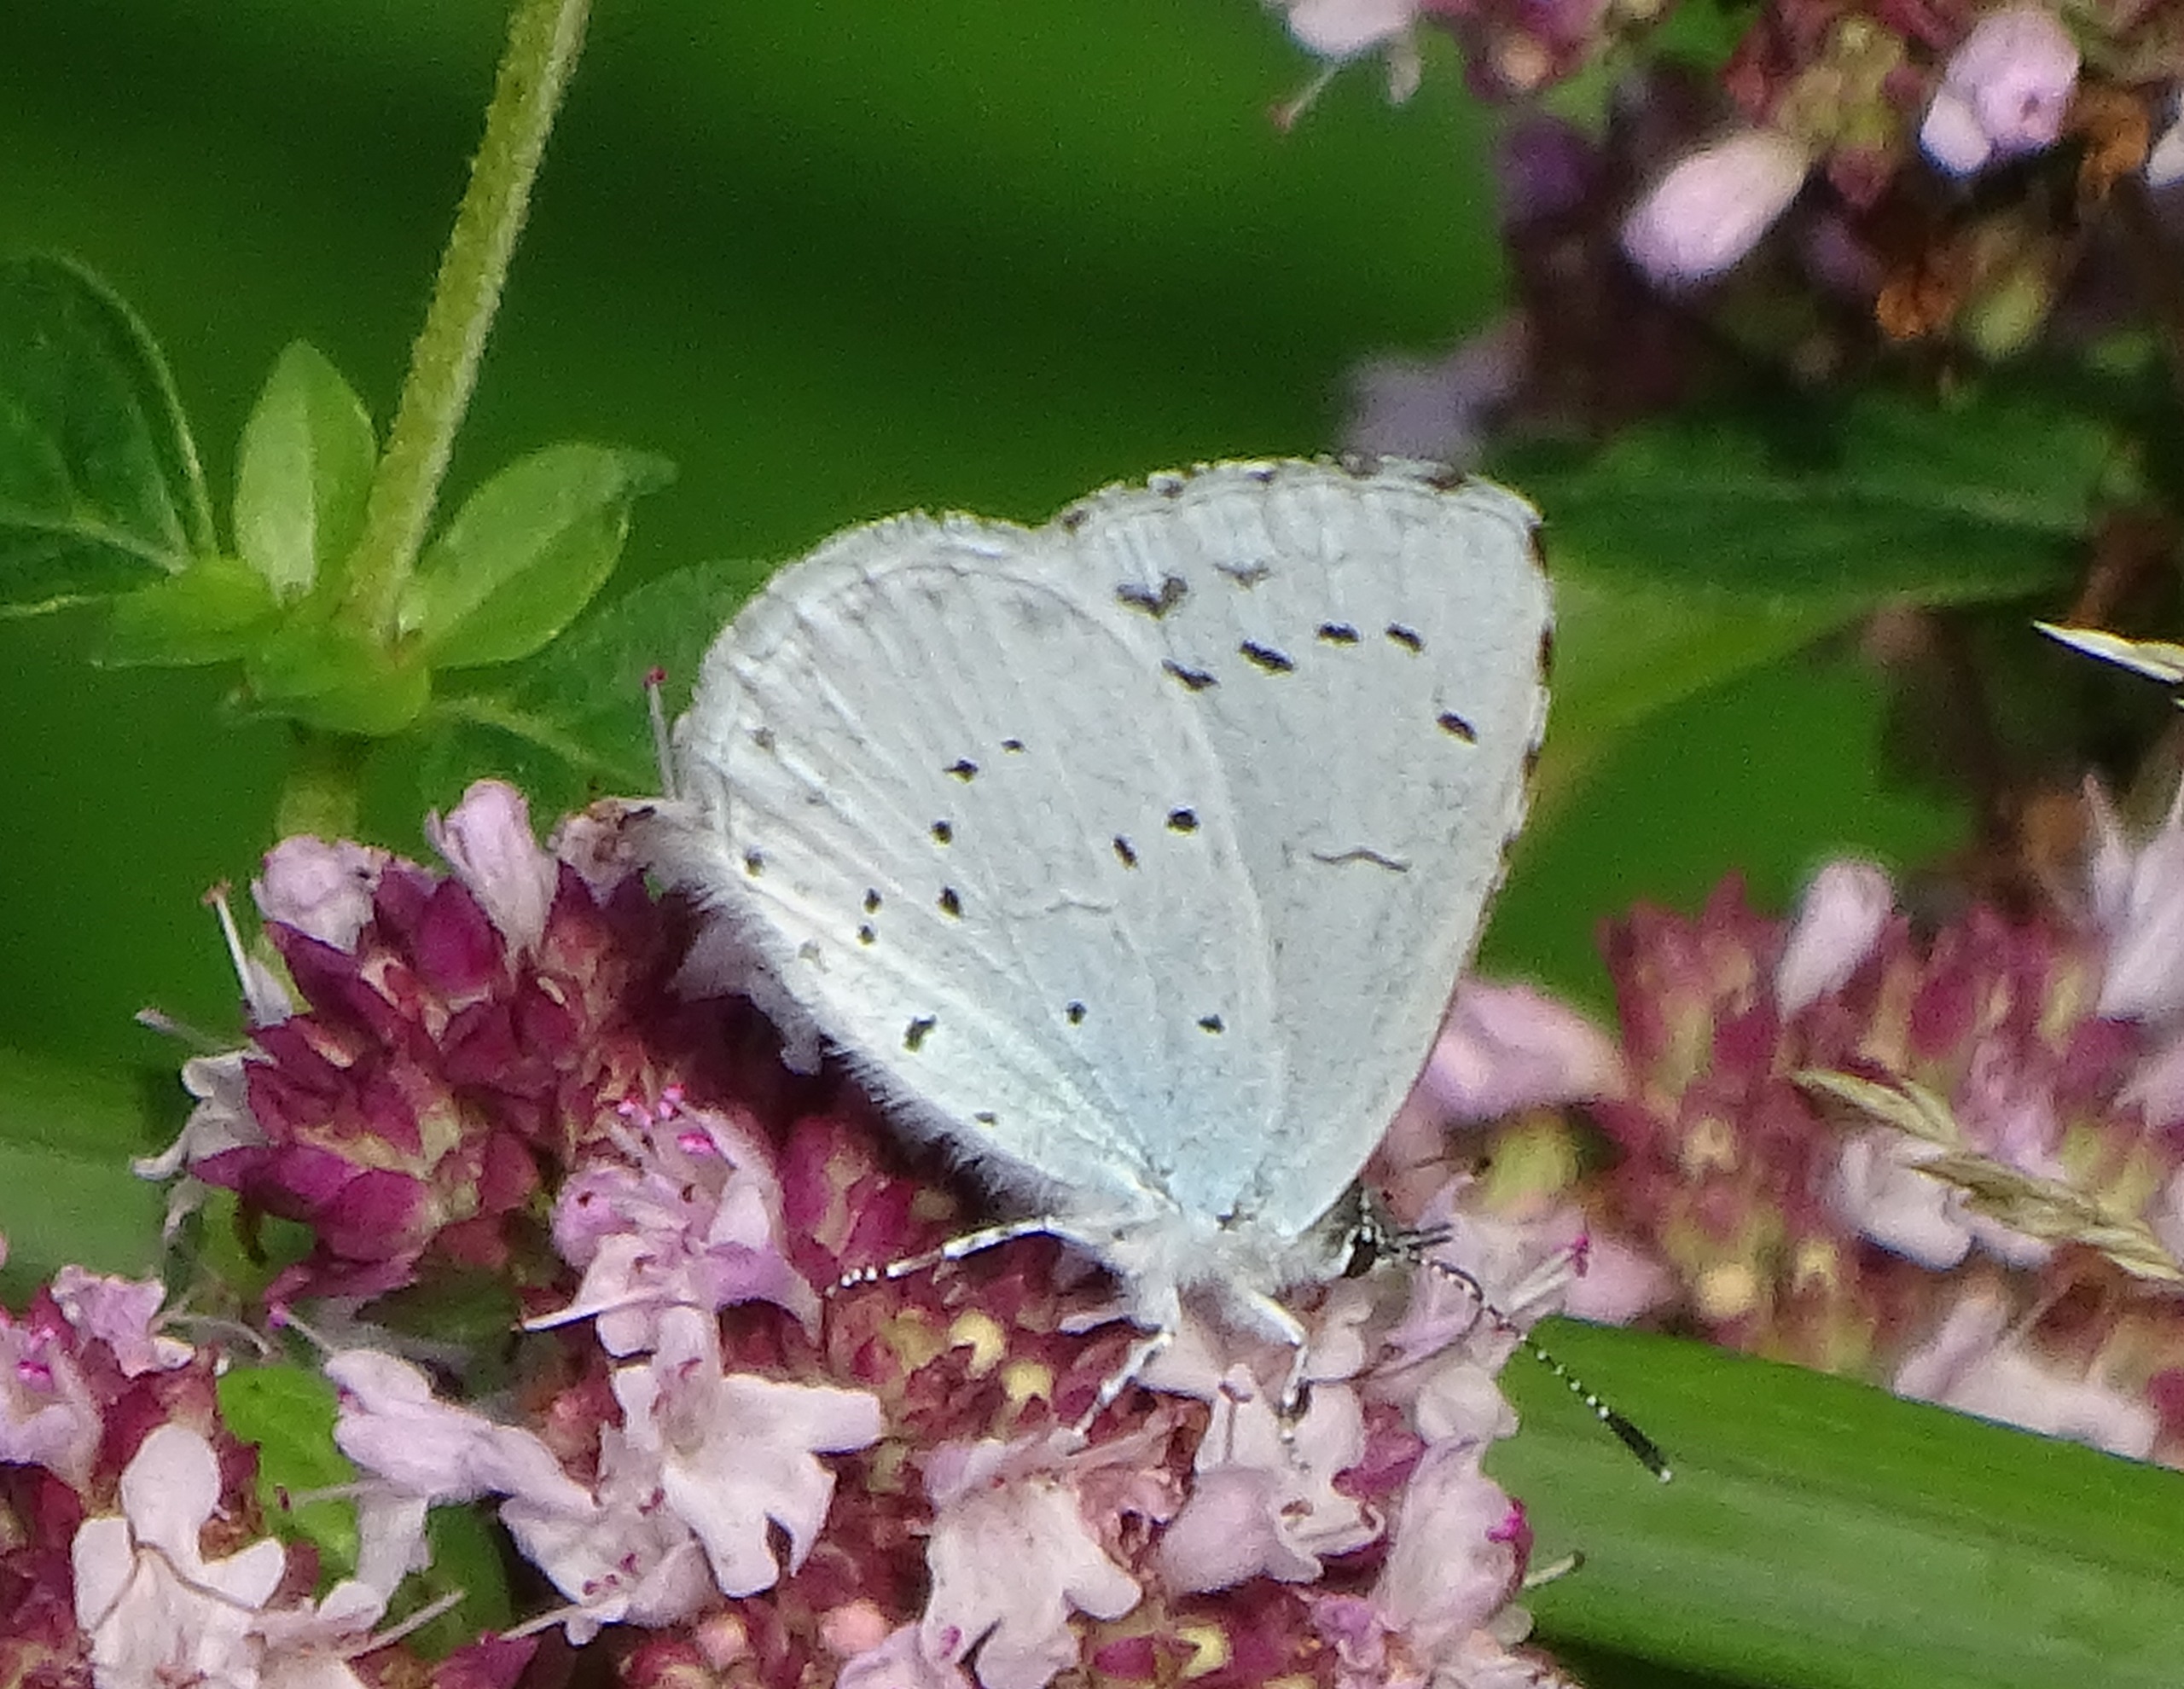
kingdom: Animalia
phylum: Arthropoda
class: Insecta
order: Lepidoptera
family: Lycaenidae
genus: Celastrina
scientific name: Celastrina argiolus
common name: Skovblåfugl
